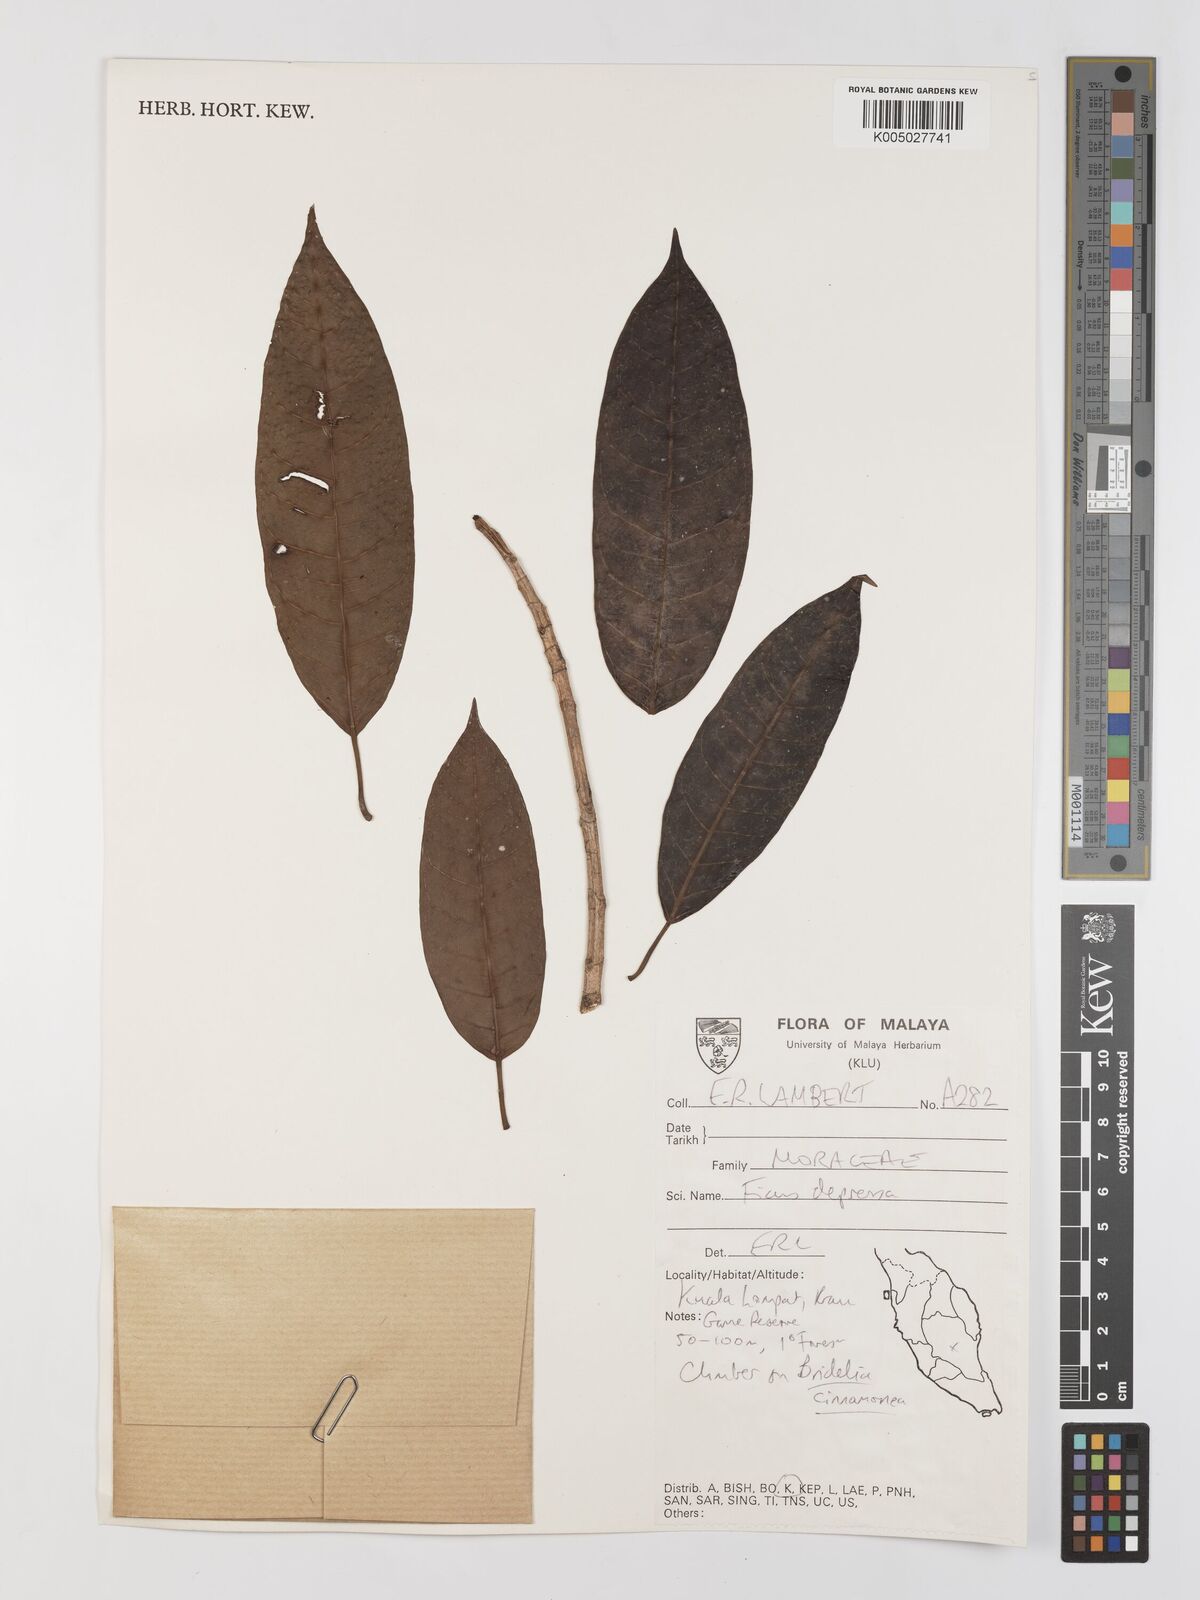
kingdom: Plantae
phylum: Tracheophyta
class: Magnoliopsida
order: Rosales
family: Moraceae
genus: Ficus
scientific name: Ficus
